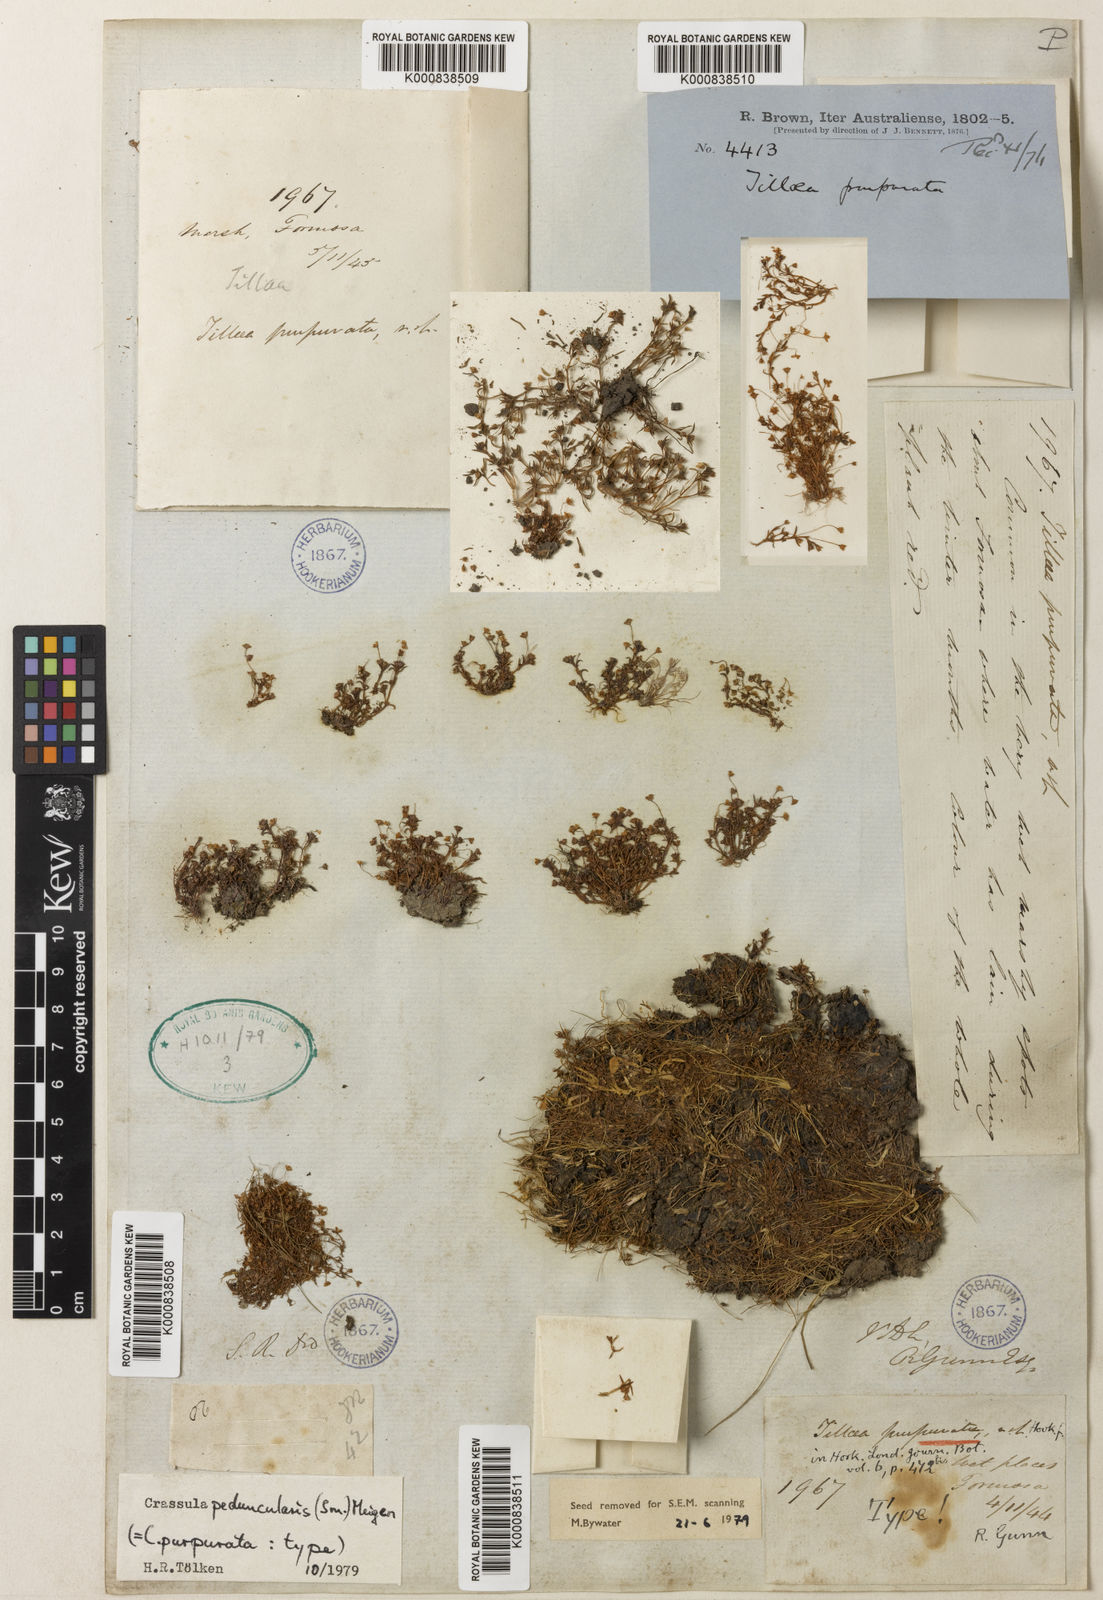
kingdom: Plantae
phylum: Tracheophyta
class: Magnoliopsida
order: Saxifragales
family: Crassulaceae
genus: Crassula
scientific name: Crassula peduncularis
